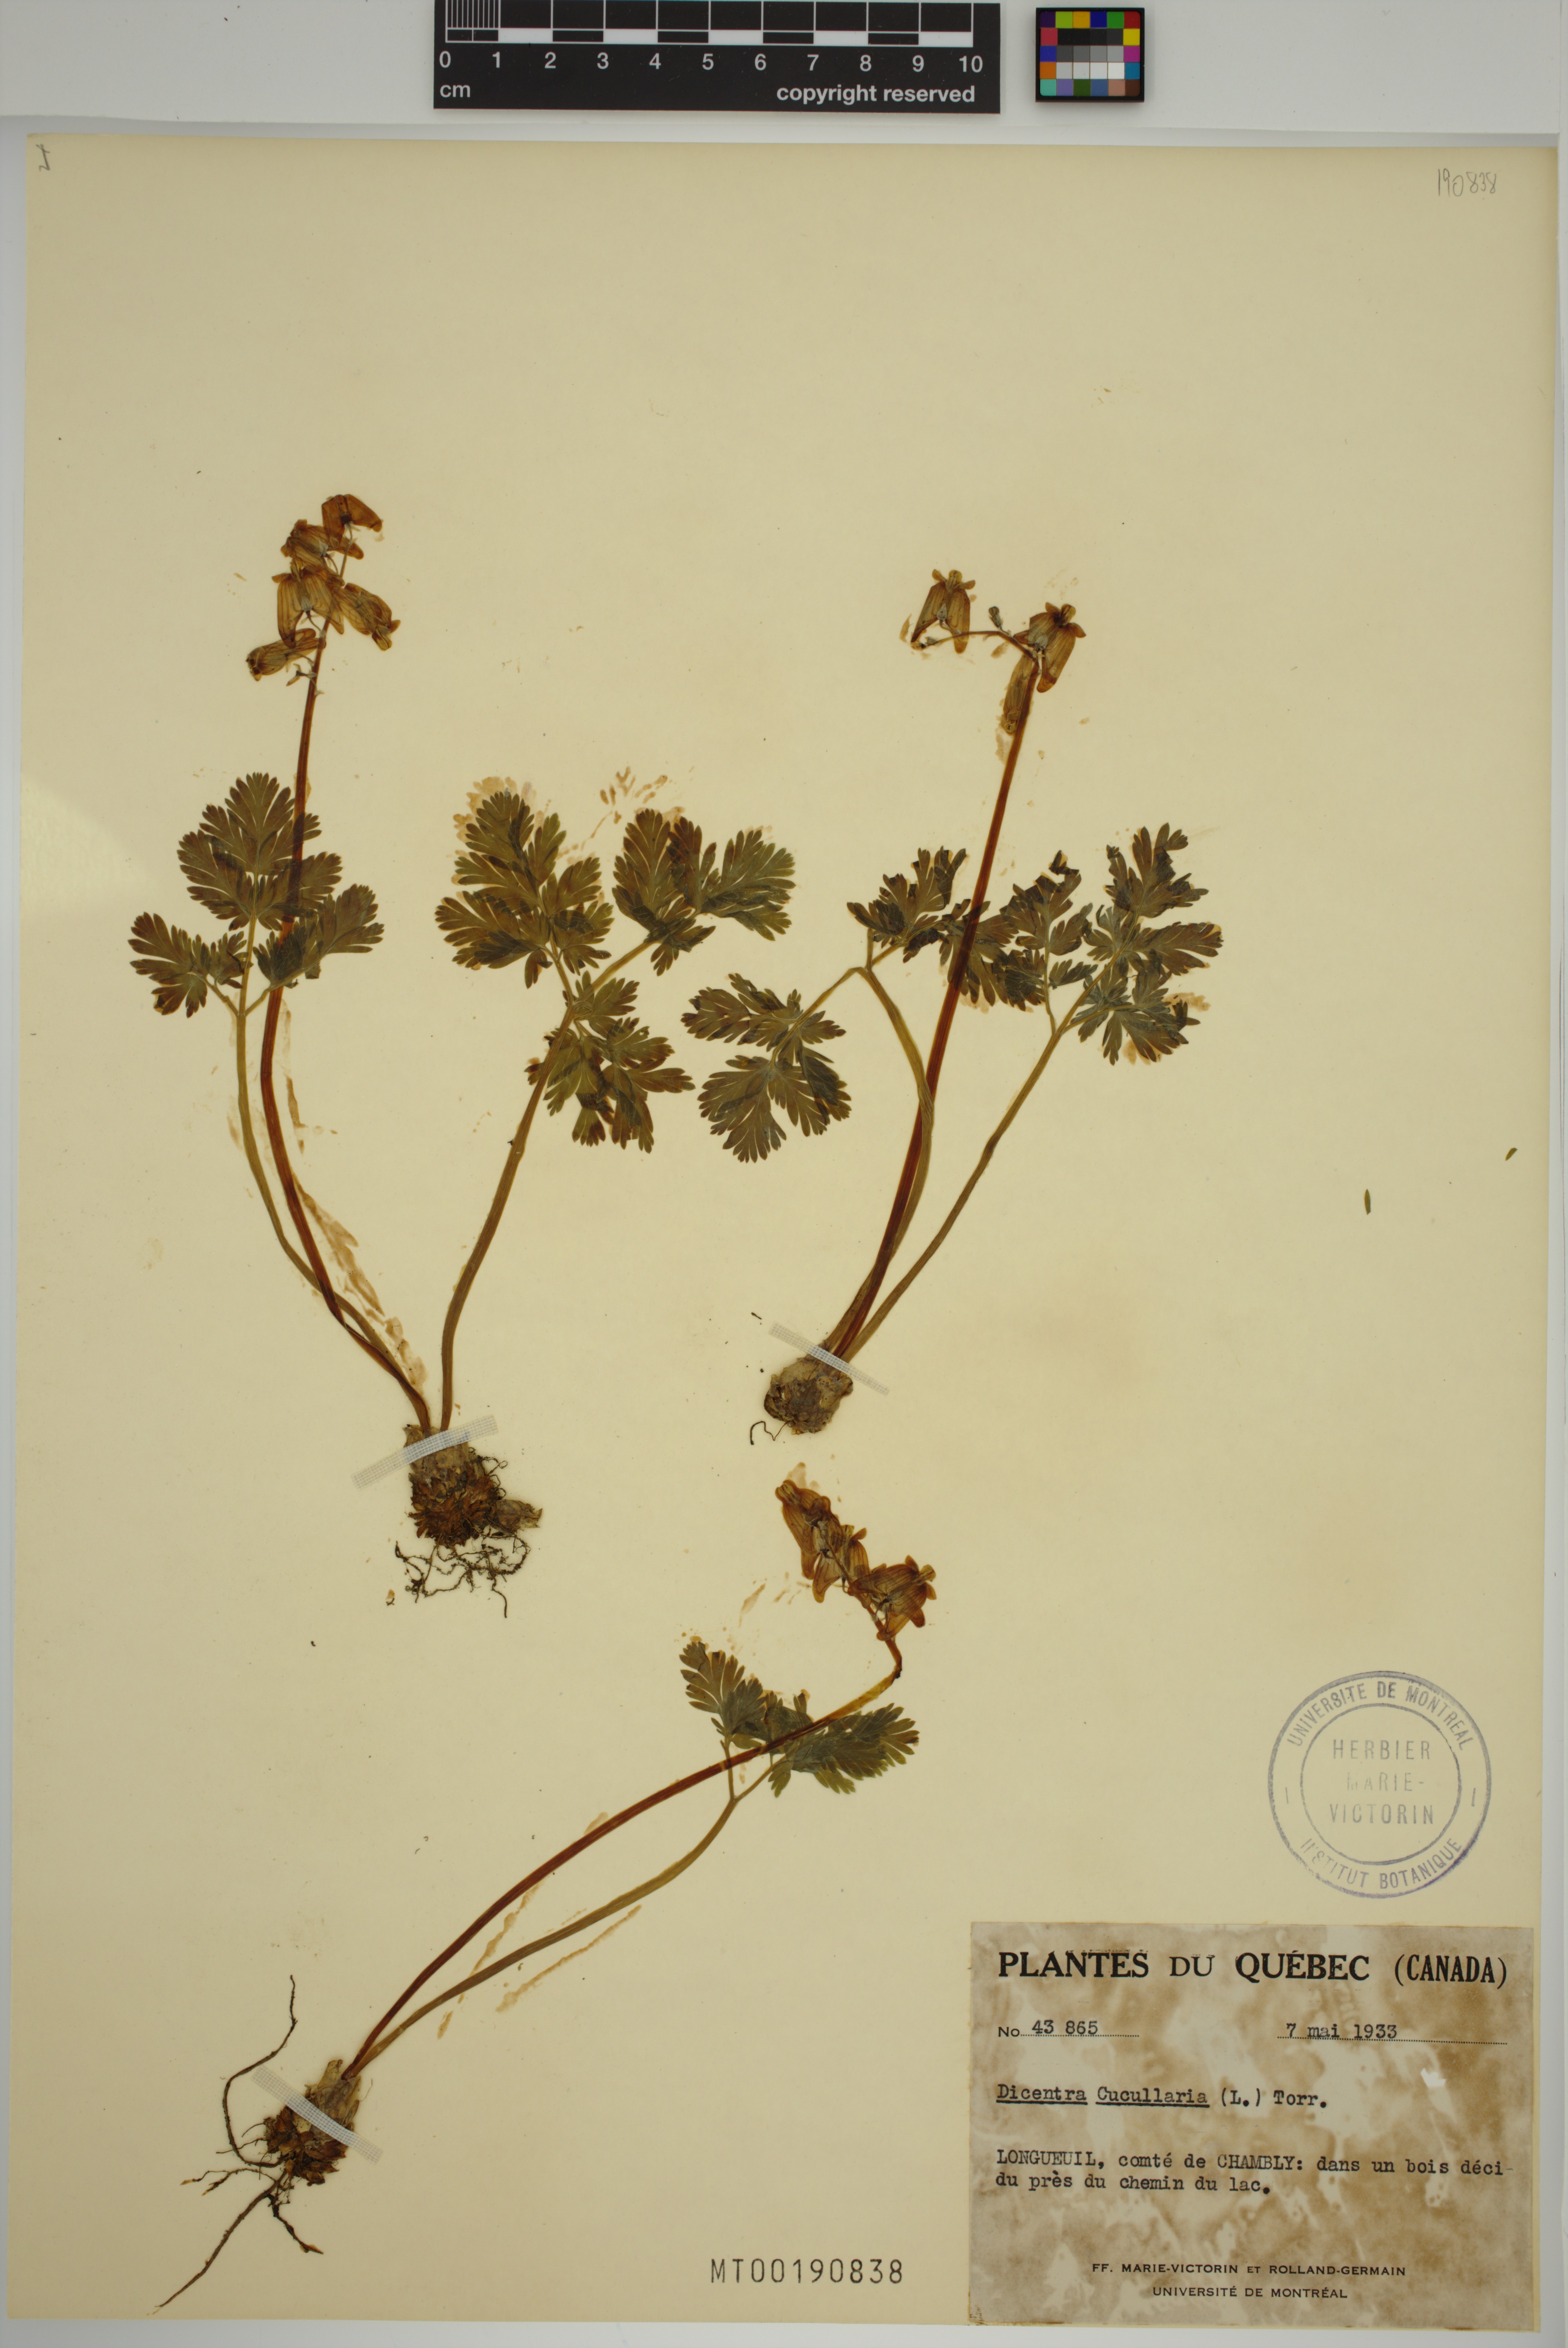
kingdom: Plantae
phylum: Tracheophyta
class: Magnoliopsida
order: Ranunculales
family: Papaveraceae
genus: Dicentra
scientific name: Dicentra cucullaria
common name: Dutchman's breeches
